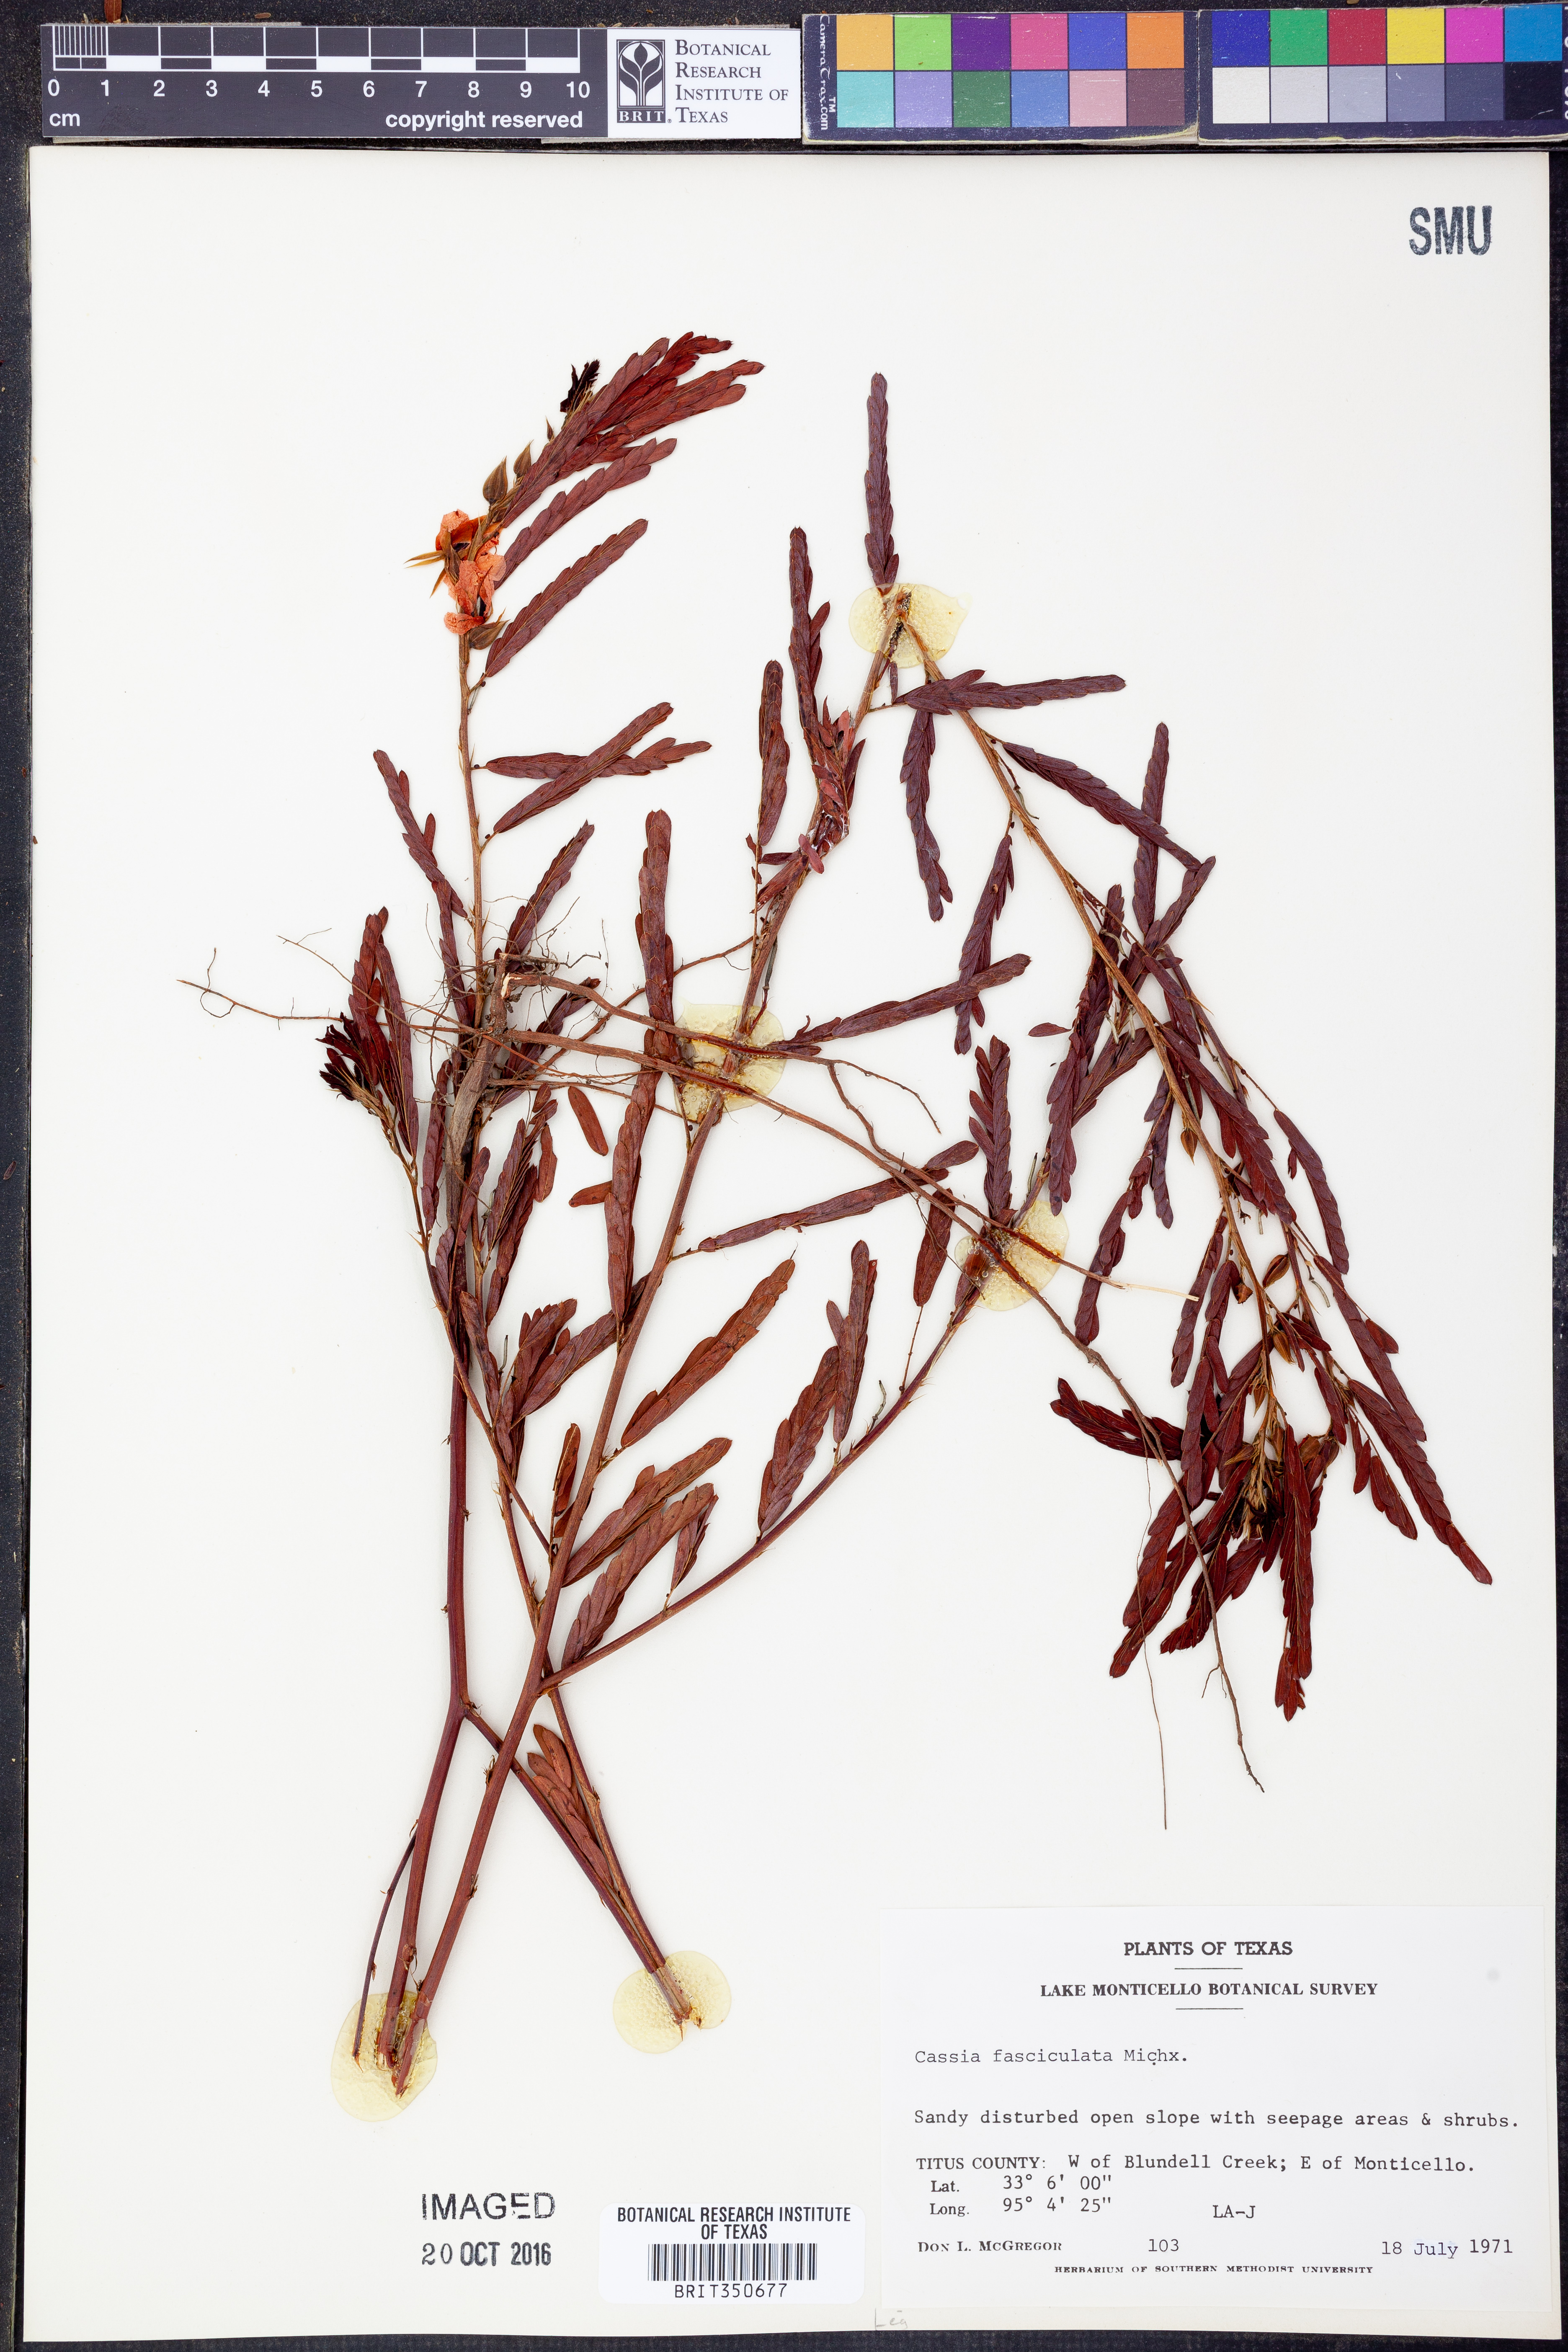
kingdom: Plantae
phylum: Tracheophyta
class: Magnoliopsida
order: Fabales
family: Fabaceae
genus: Chamaecrista
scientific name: Chamaecrista fasciculata
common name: Golden cassia
